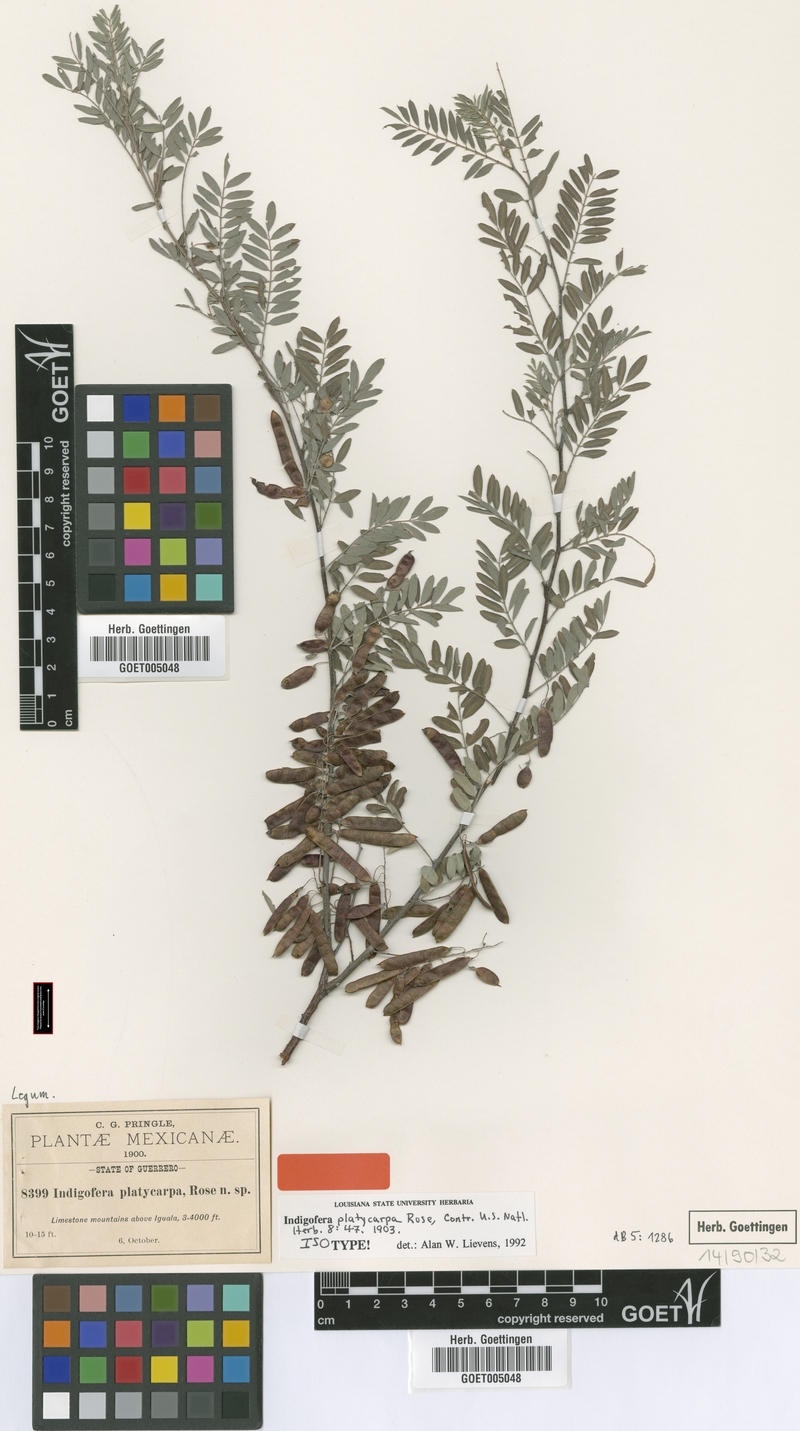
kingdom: Plantae
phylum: Tracheophyta
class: Magnoliopsida
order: Fabales
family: Fabaceae
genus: Indigofera
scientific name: Indigofera platycarpa
